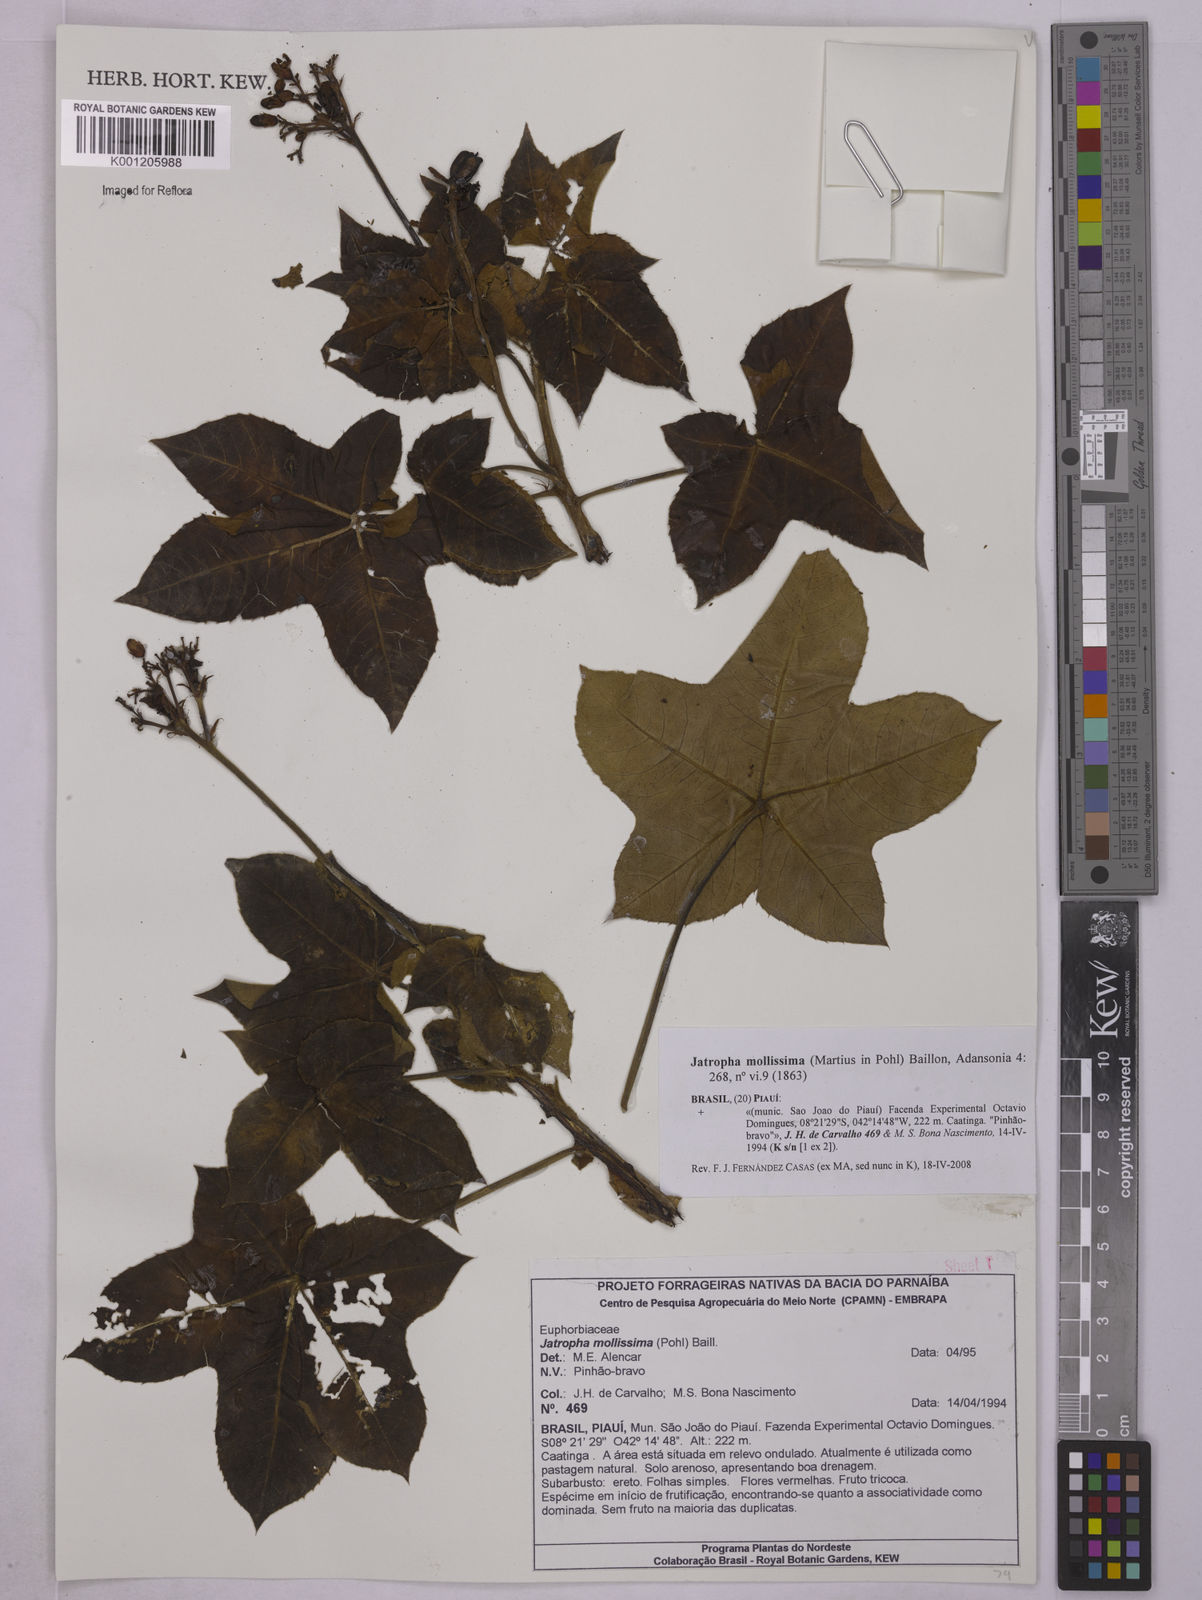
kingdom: Plantae
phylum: Tracheophyta
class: Magnoliopsida
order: Malpighiales
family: Euphorbiaceae
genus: Jatropha
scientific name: Jatropha mollissima
